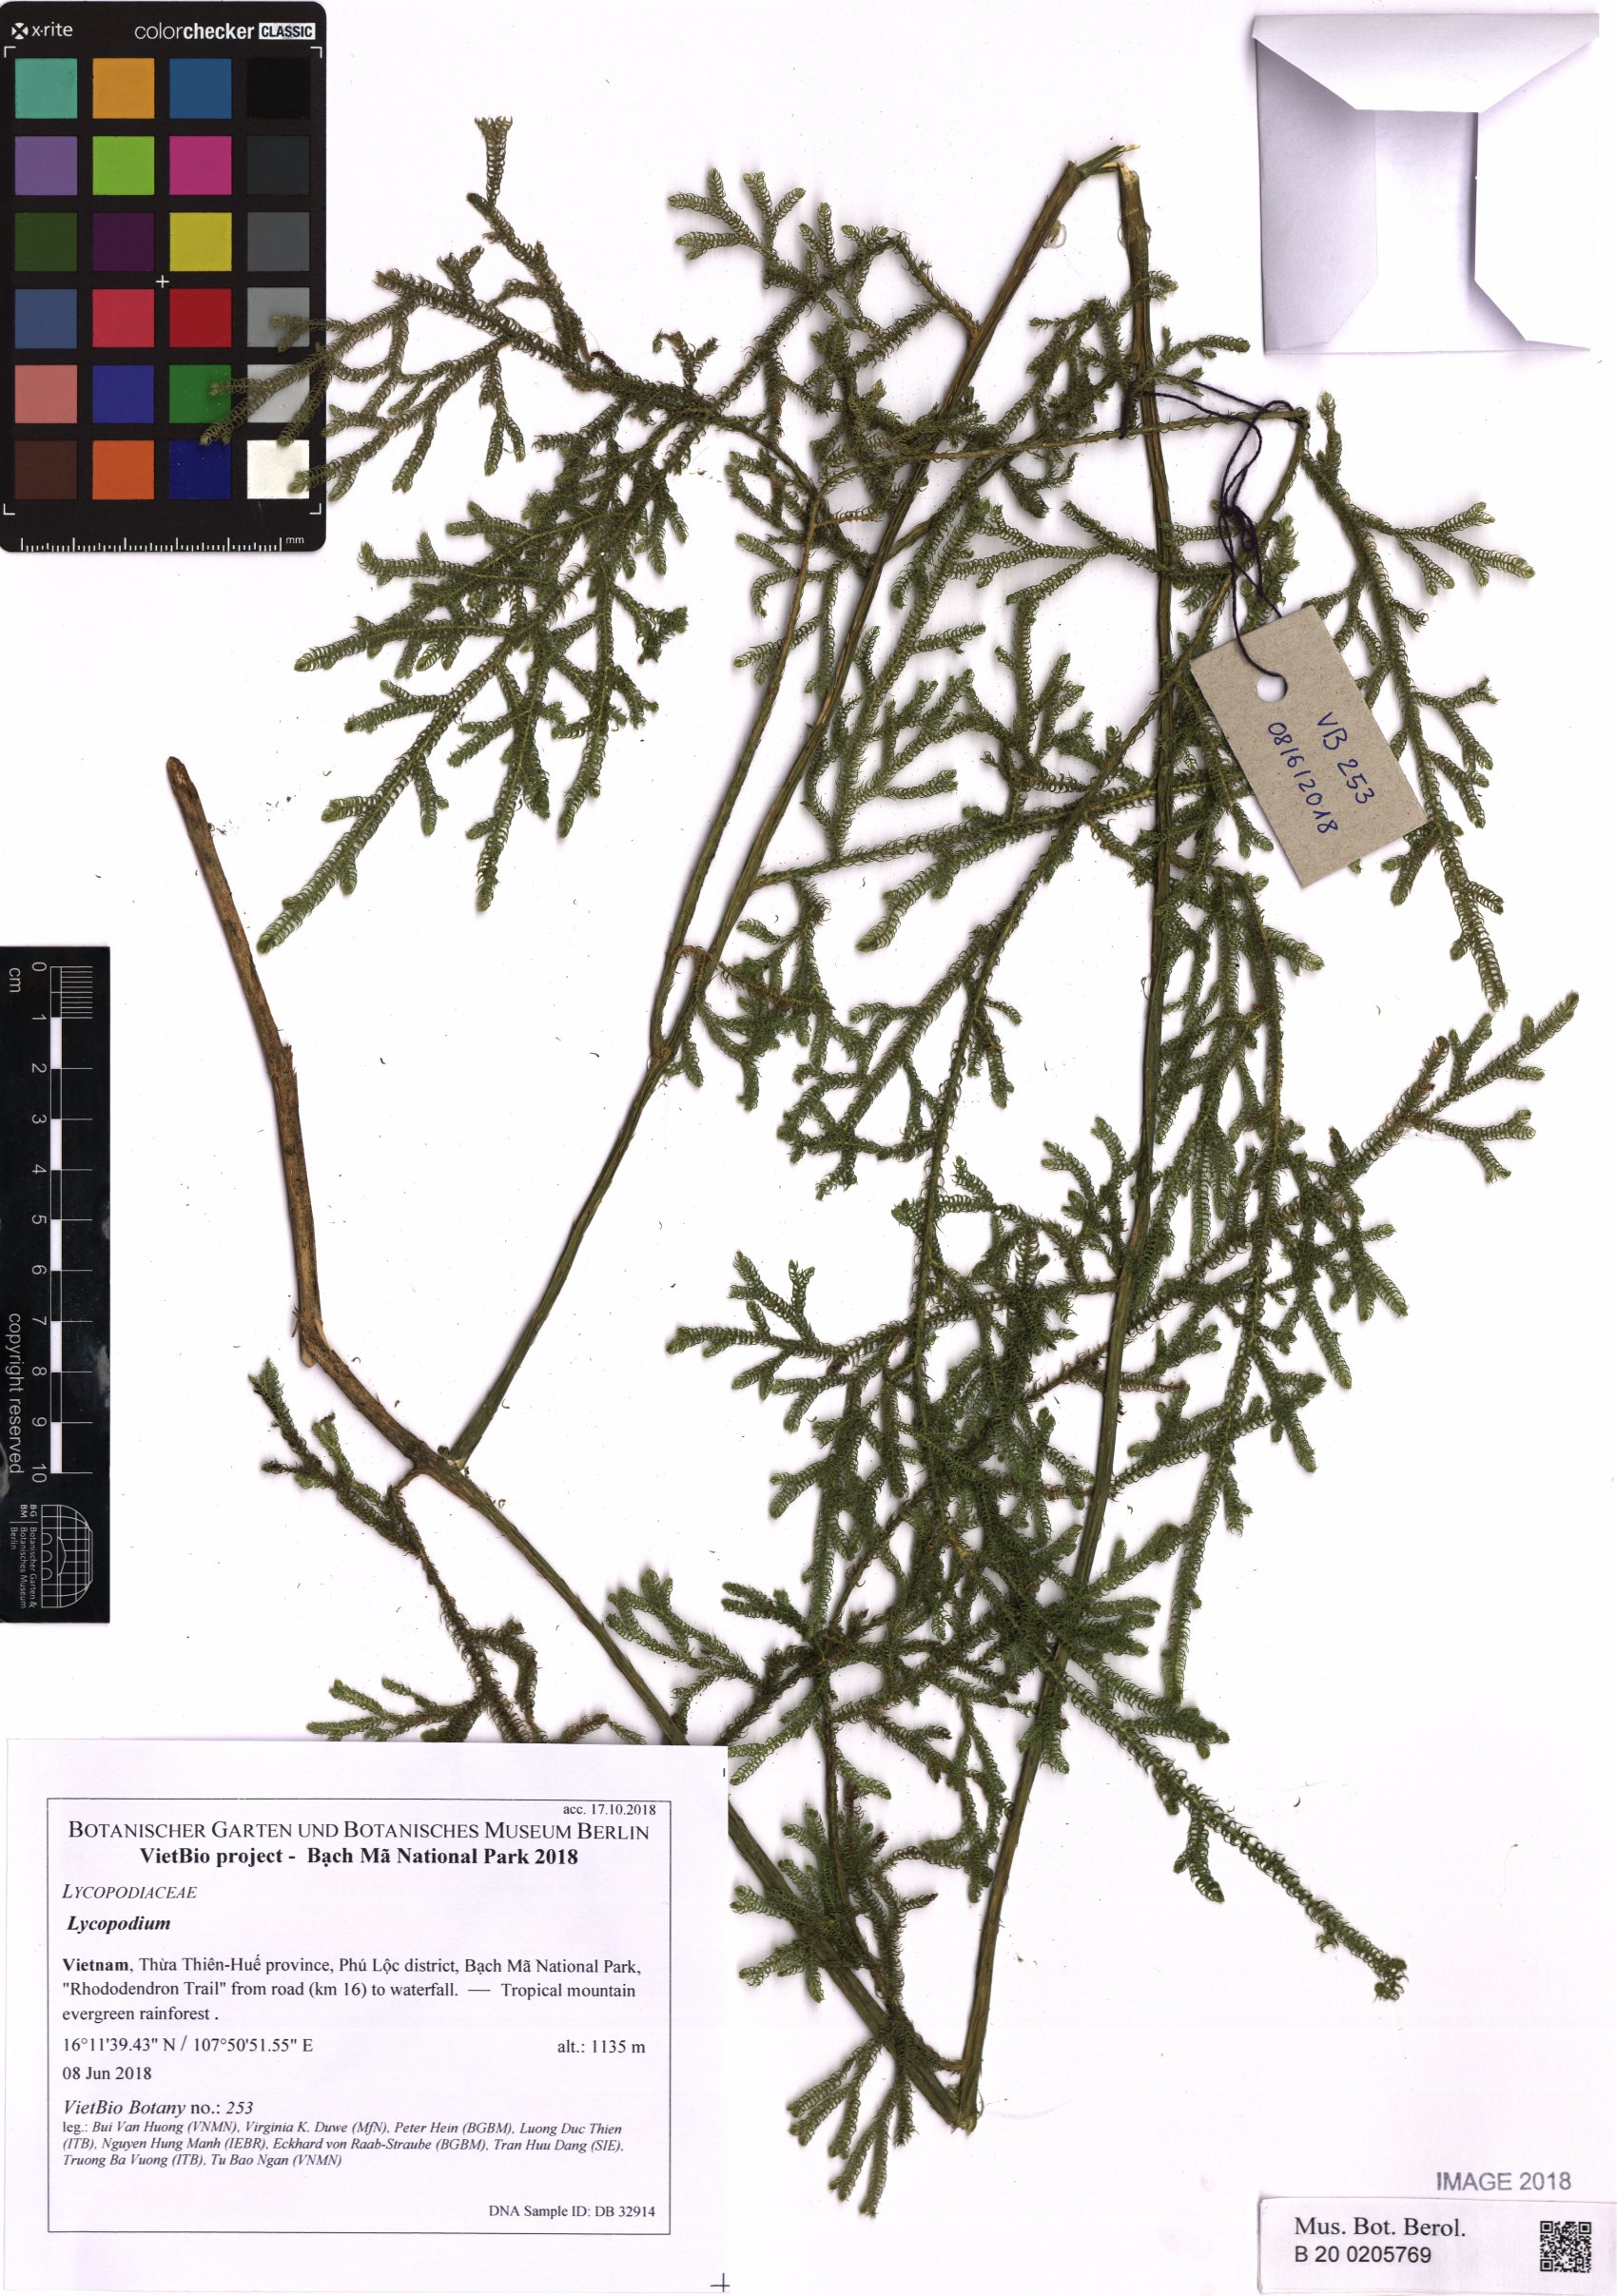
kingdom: Plantae
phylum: Tracheophyta
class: Lycopodiopsida
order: Lycopodiales
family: Lycopodiaceae
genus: Lycopodium
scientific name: Lycopodium
